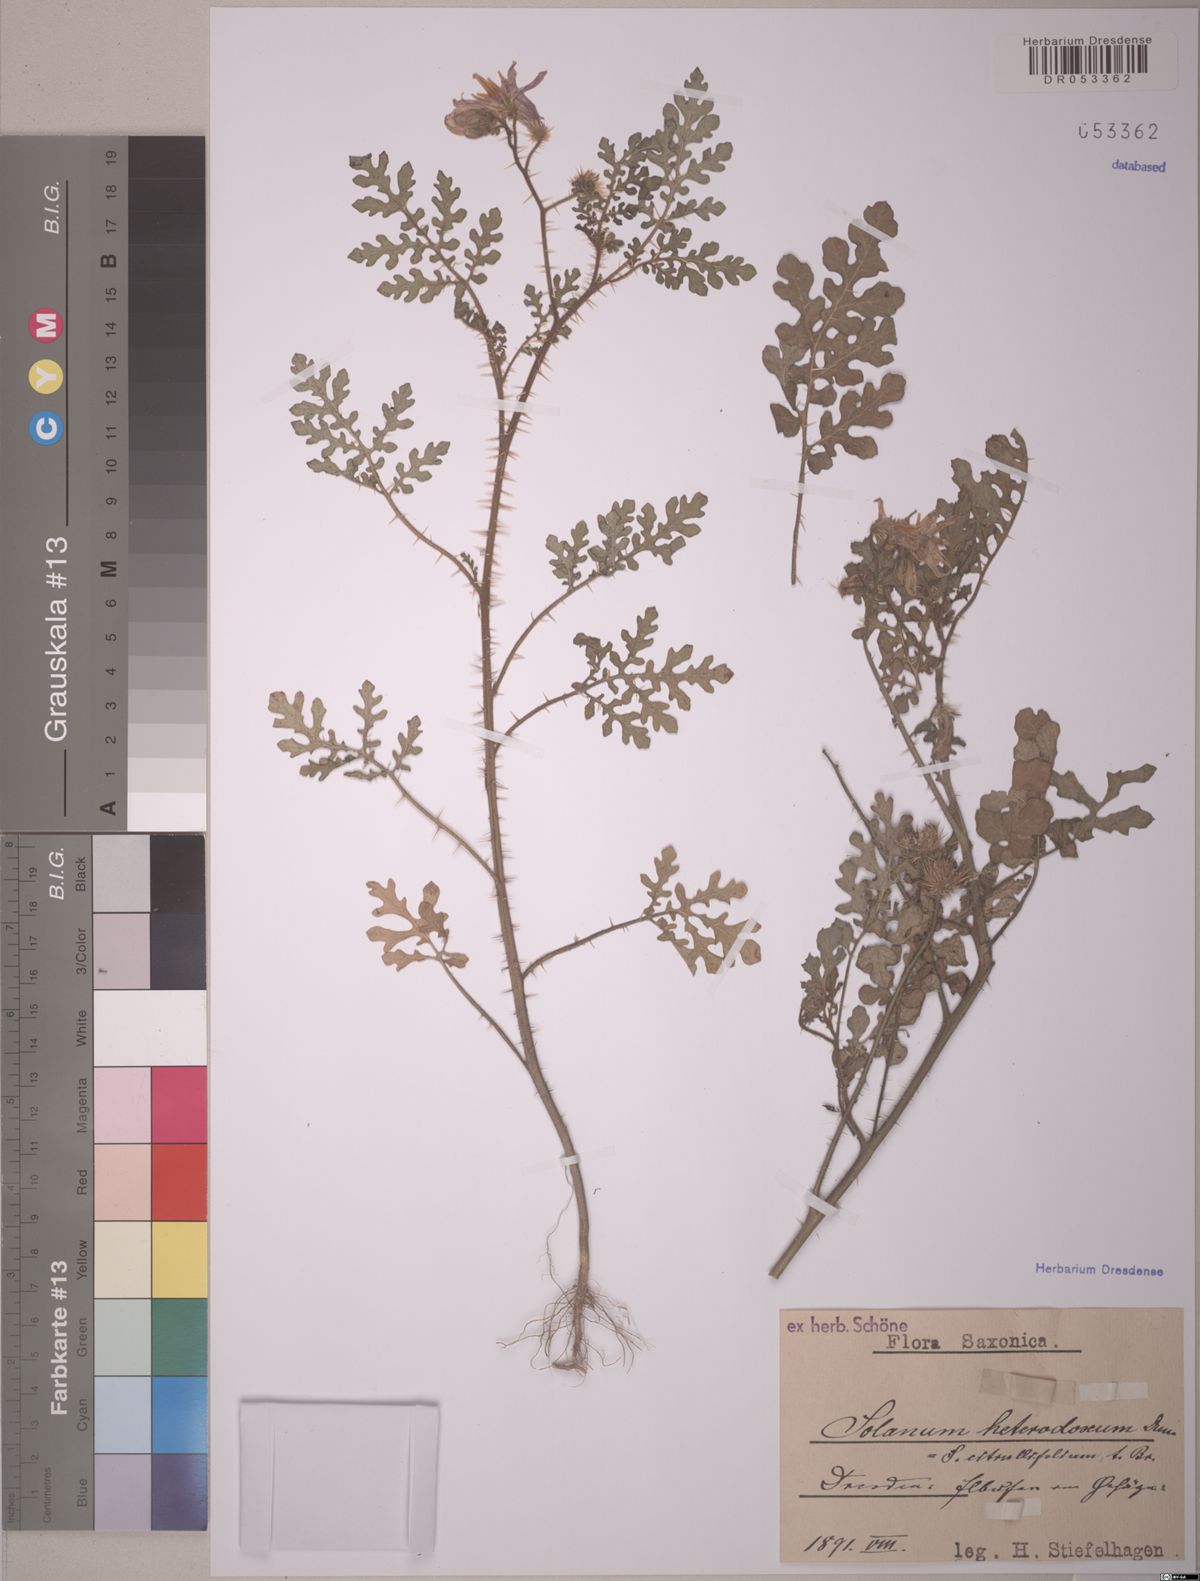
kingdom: Plantae
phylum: Tracheophyta
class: Magnoliopsida
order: Solanales
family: Solanaceae
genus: Solanum
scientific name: Solanum heterodoxum
